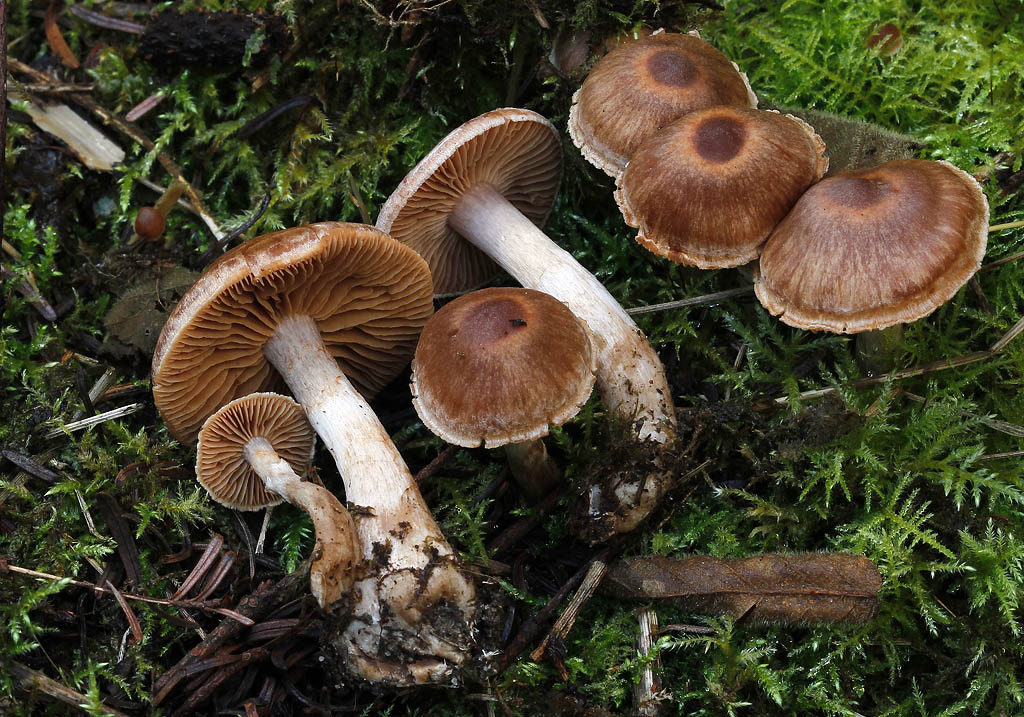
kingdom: Fungi
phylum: Basidiomycota
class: Agaricomycetes
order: Agaricales
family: Cortinariaceae
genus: Cortinarius
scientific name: Cortinarius aptecohaerens
